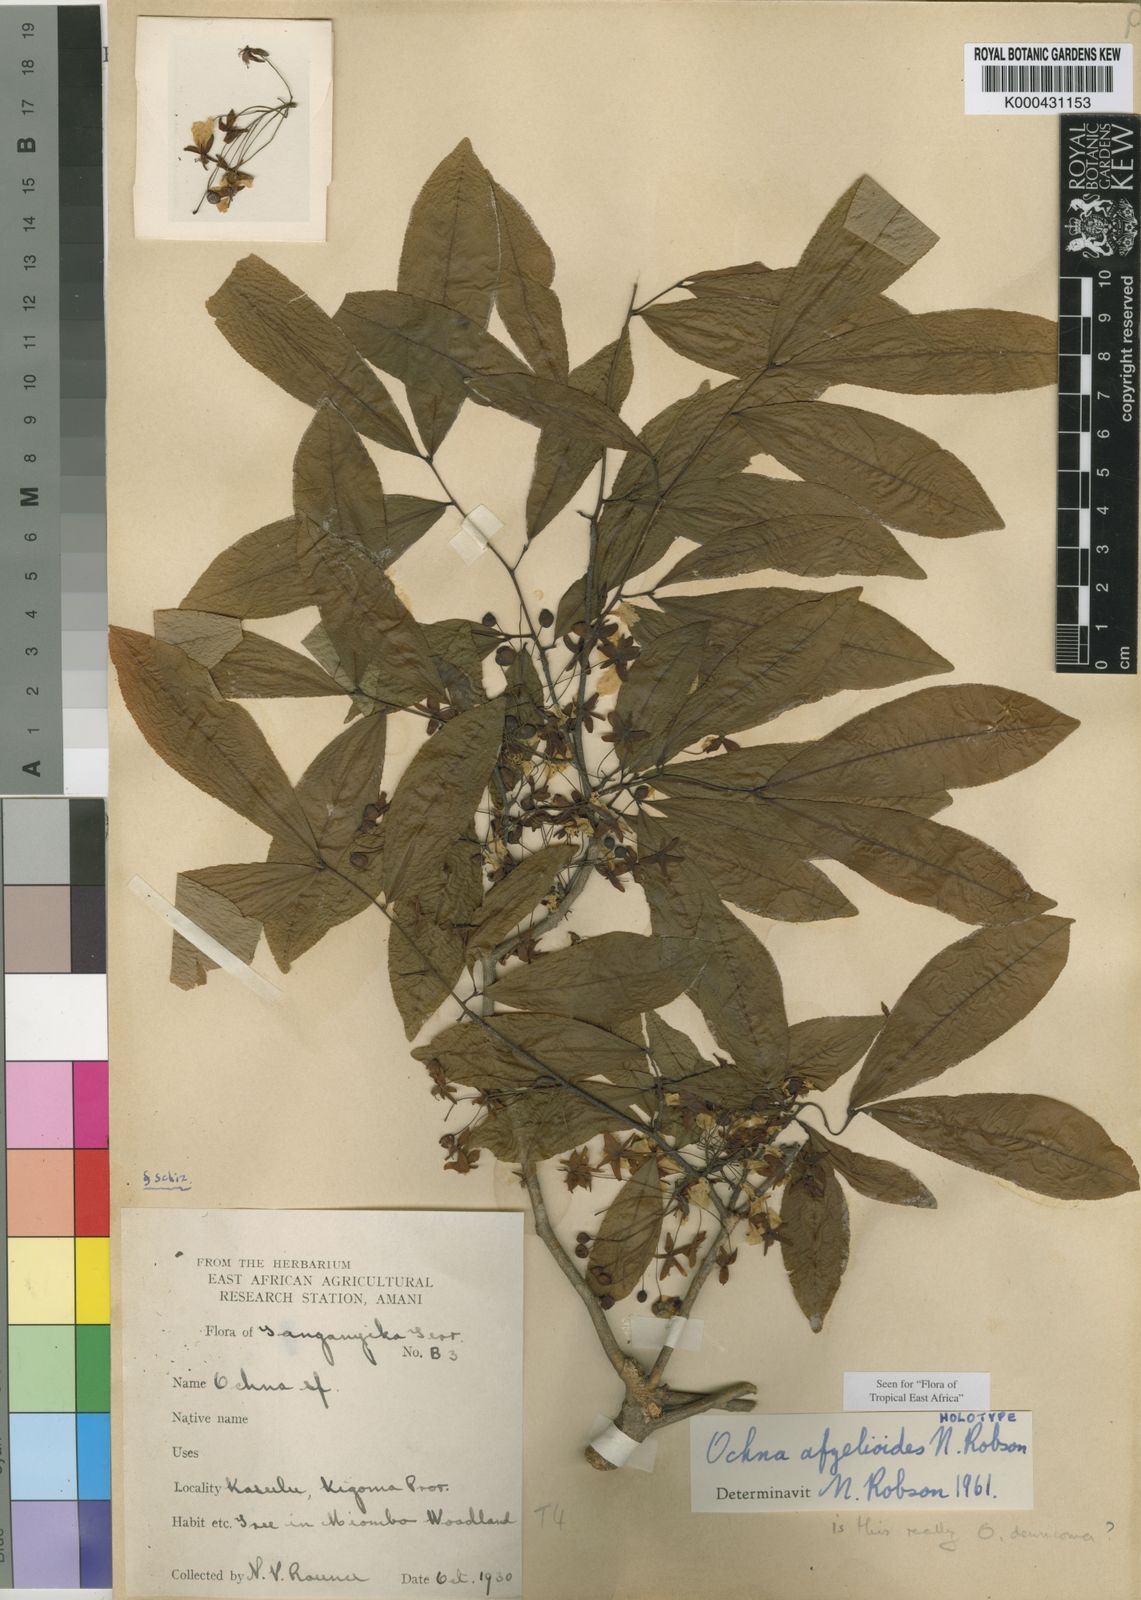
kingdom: Plantae
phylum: Tracheophyta
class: Magnoliopsida
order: Malpighiales
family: Ochnaceae
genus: Ochna
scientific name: Ochna afzelioides
